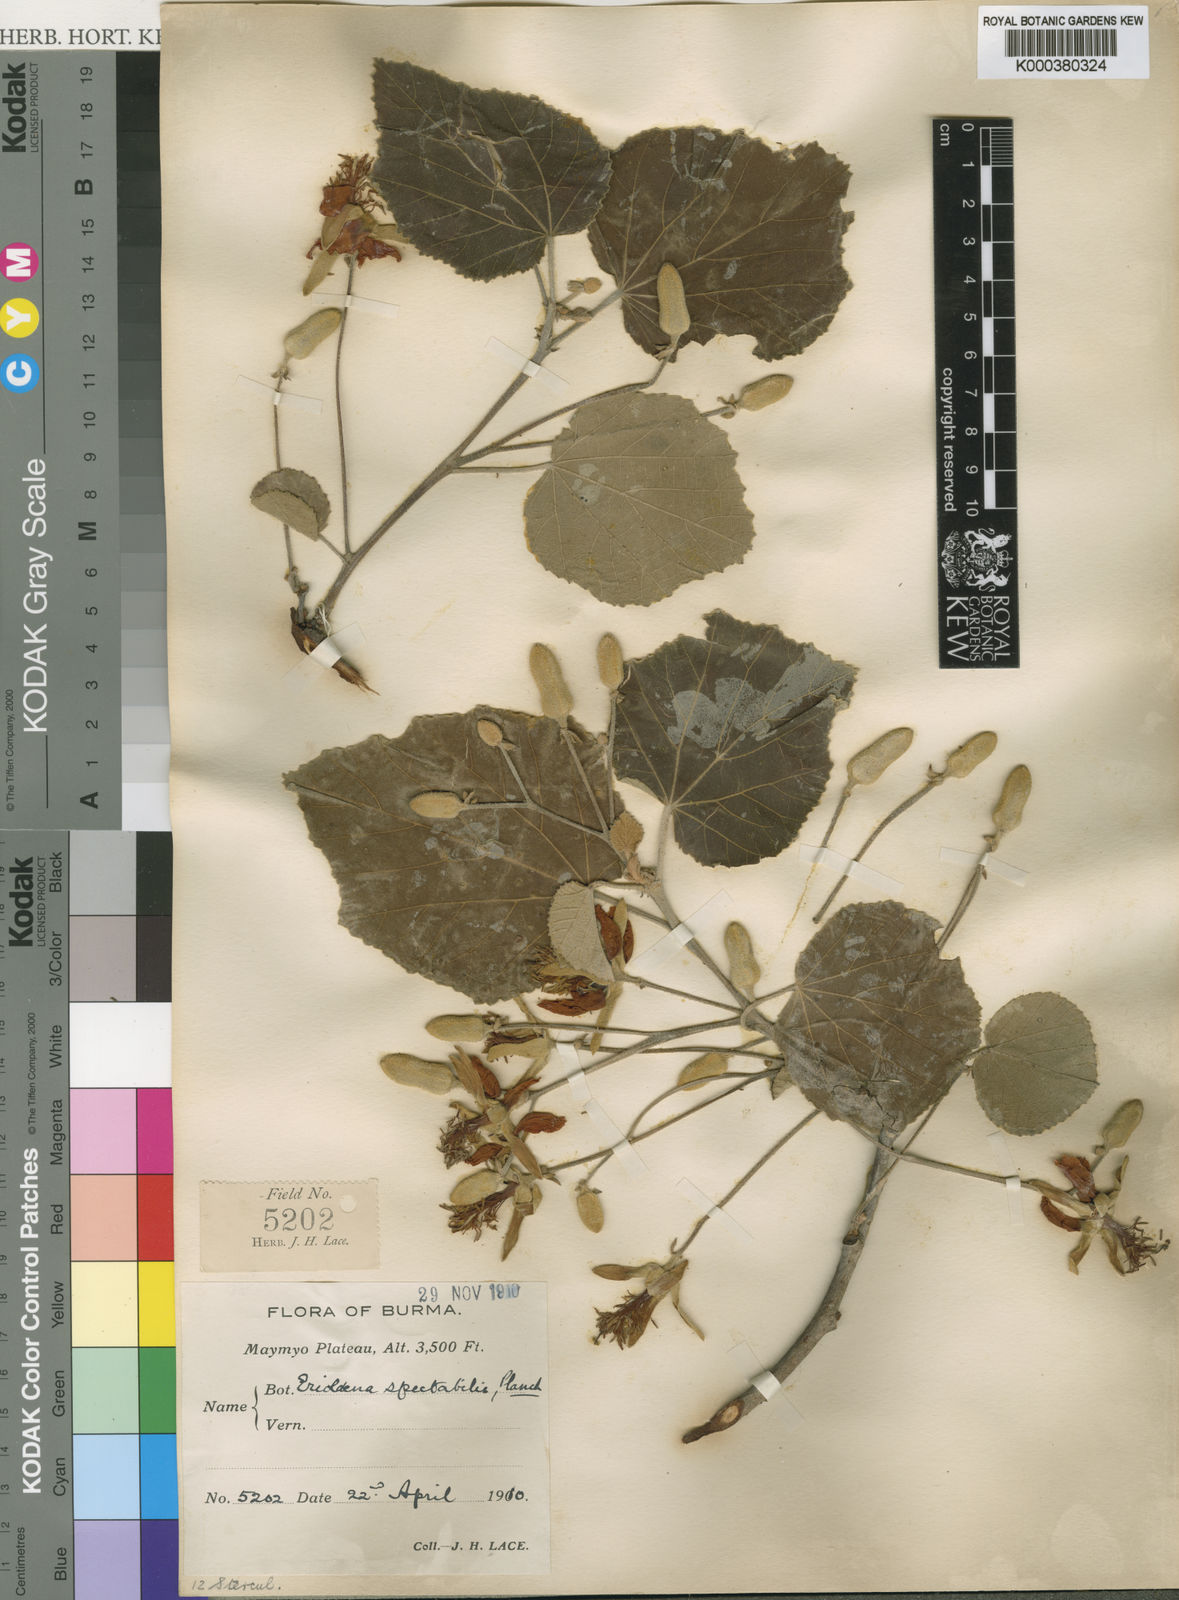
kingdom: Plantae
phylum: Tracheophyta
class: Magnoliopsida
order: Malvales
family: Malvaceae
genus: Eriolaena
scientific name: Eriolaena
